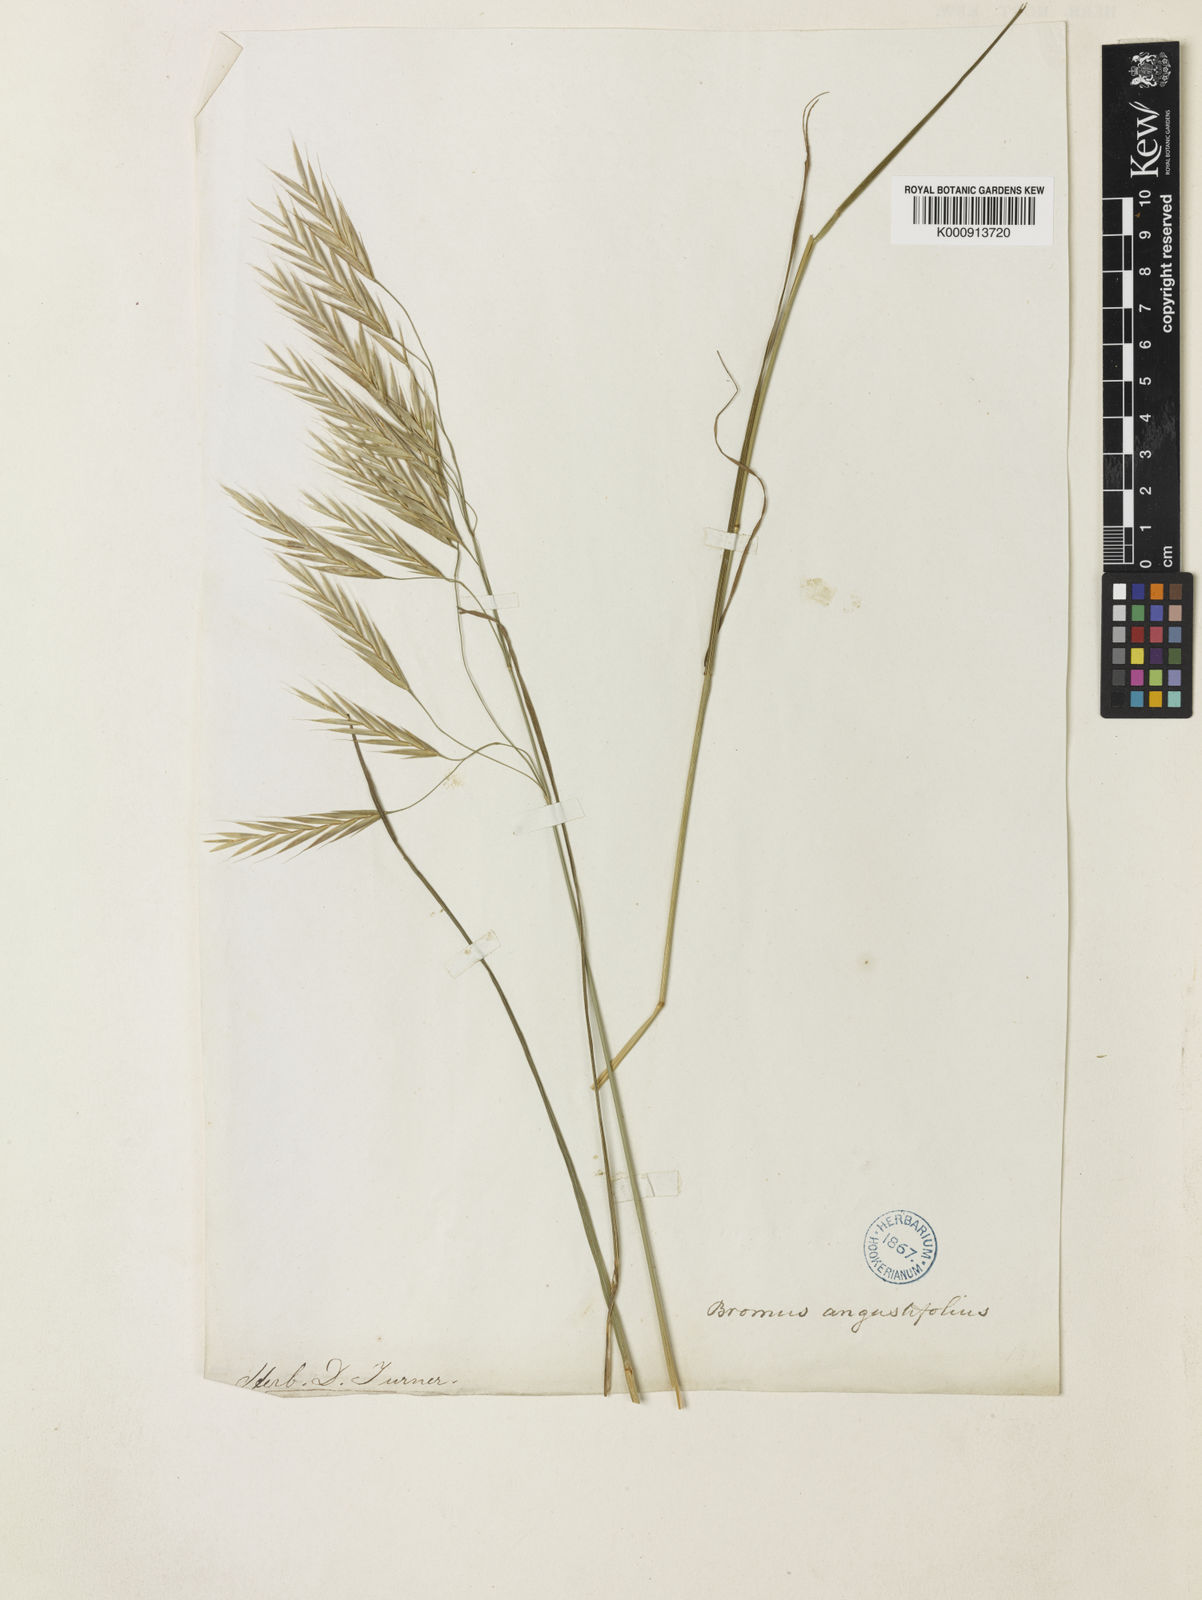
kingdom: Plantae
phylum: Tracheophyta
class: Liliopsida
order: Poales
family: Poaceae
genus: Bromus
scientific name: Bromus
